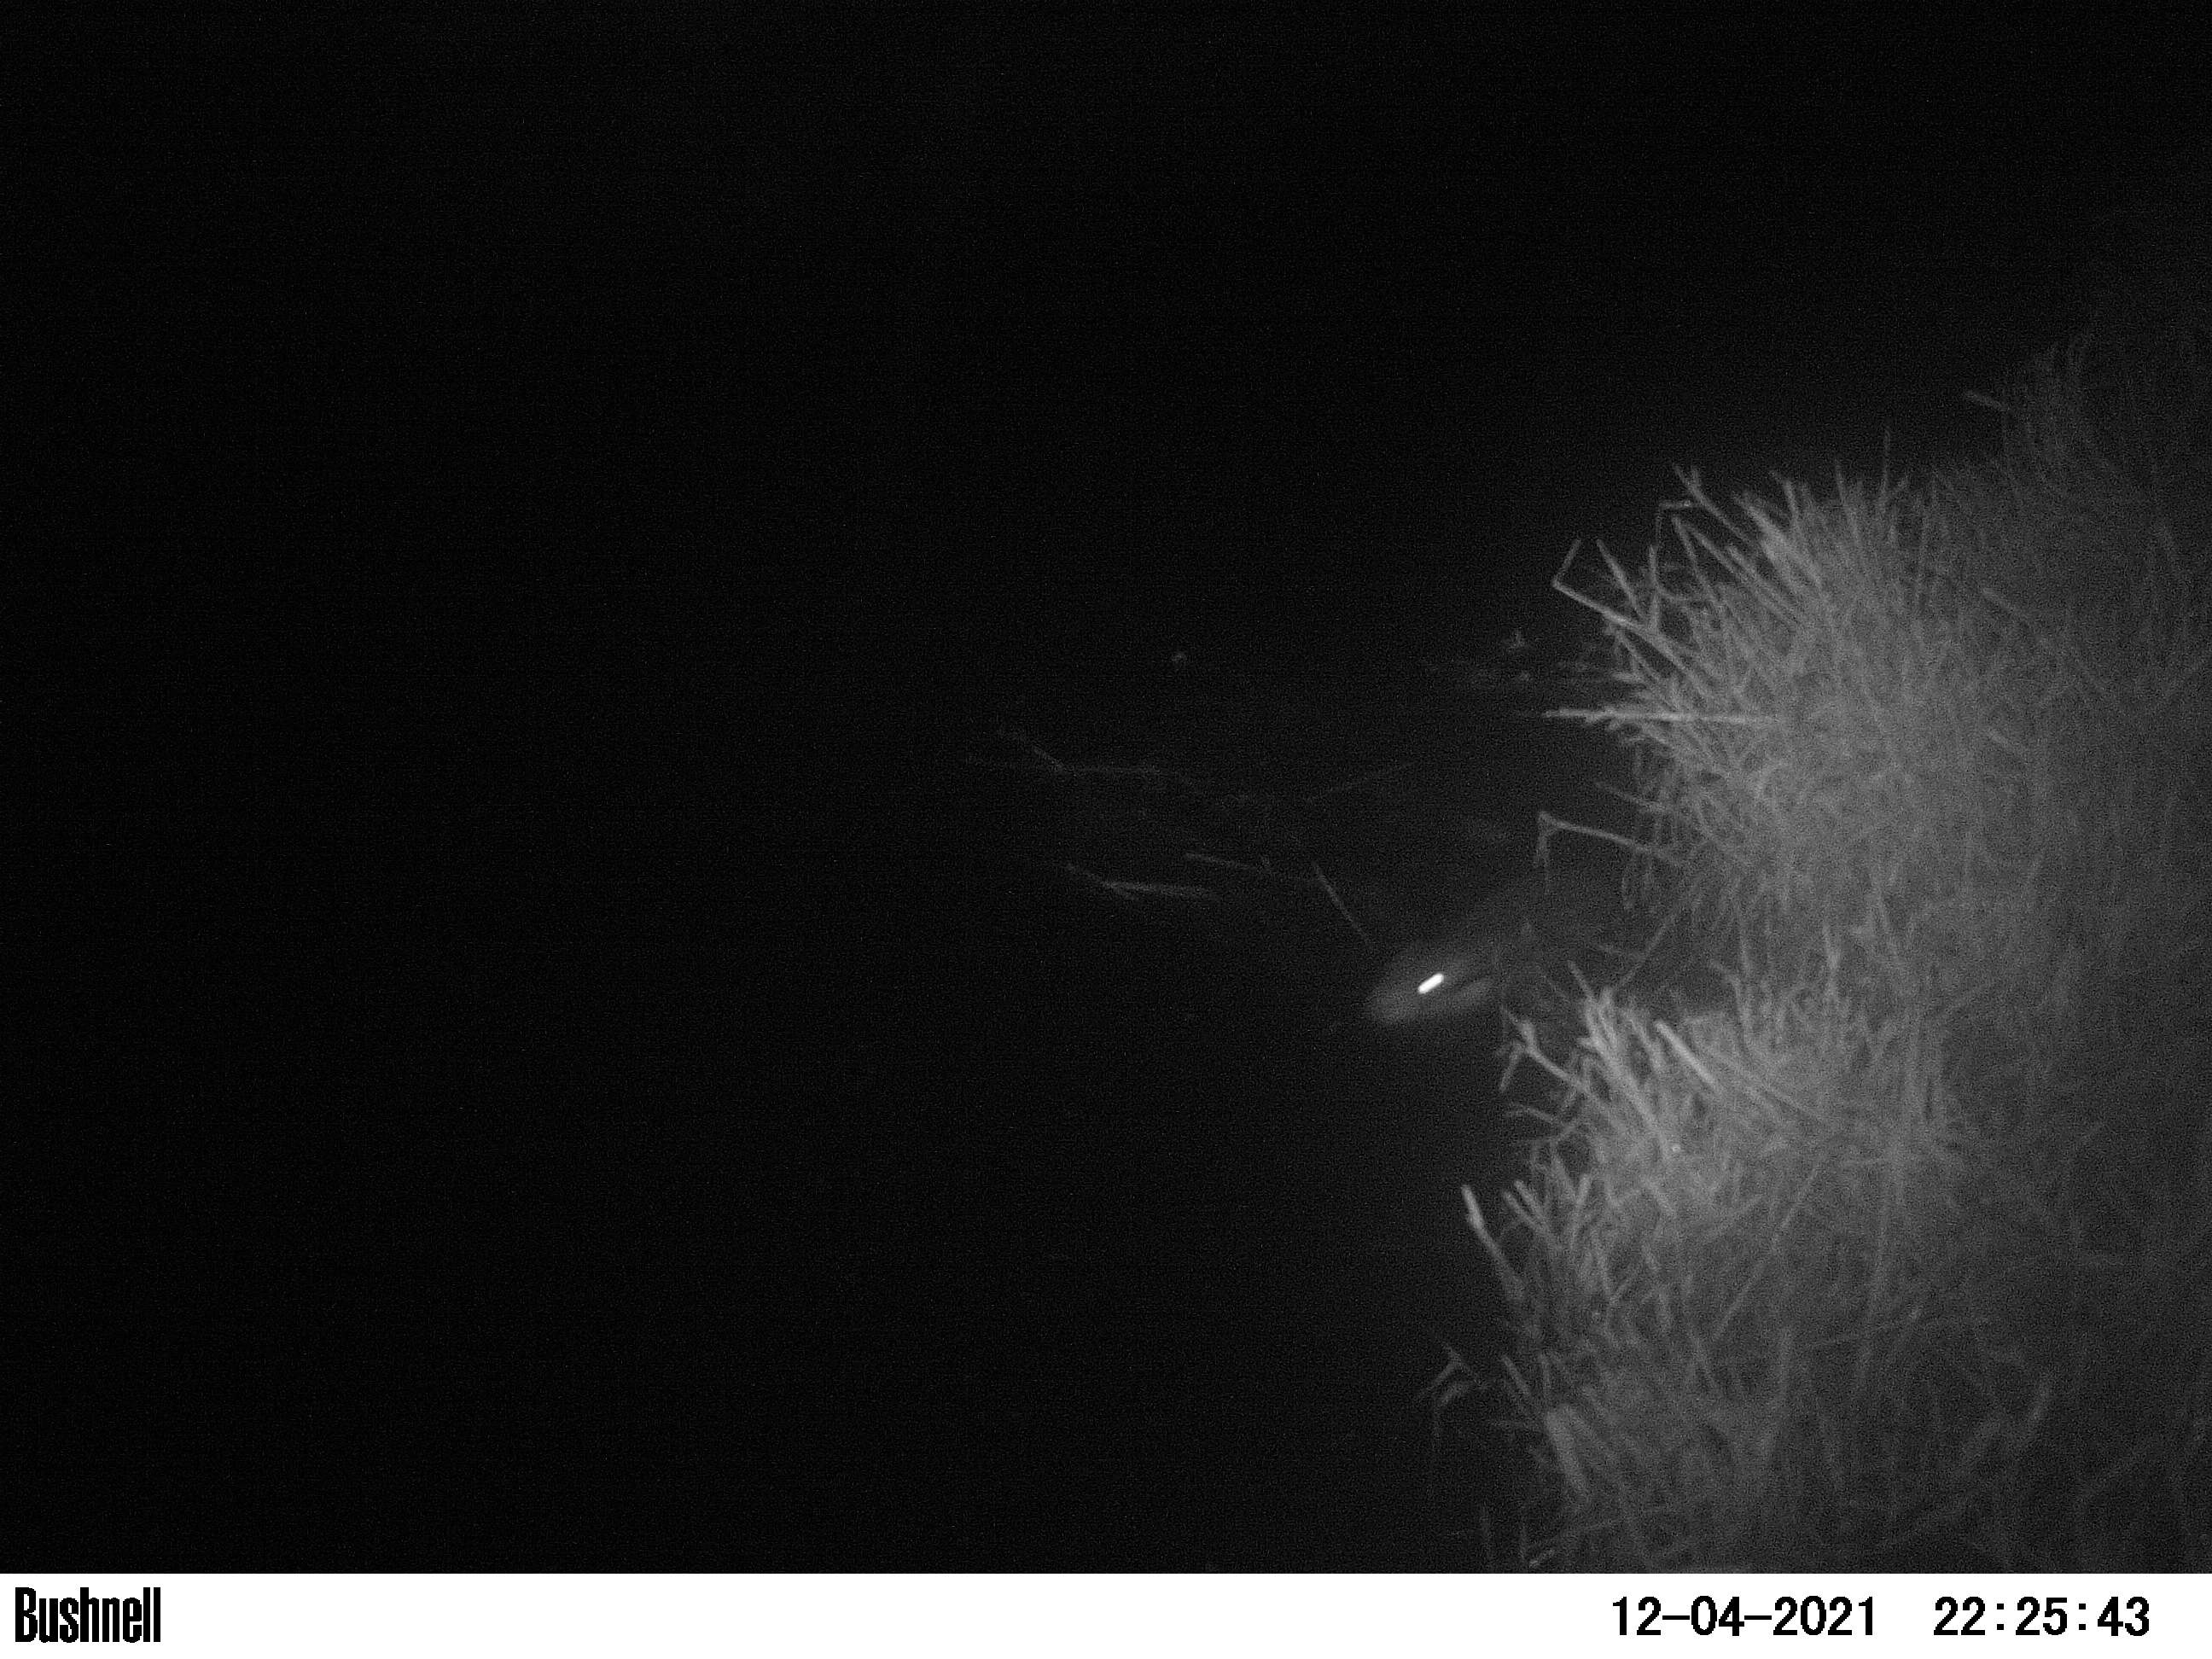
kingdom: Animalia
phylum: Chordata
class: Mammalia
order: Rodentia
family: Cricetidae
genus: Ondatra
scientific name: Ondatra zibethicus
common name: Muskrat
